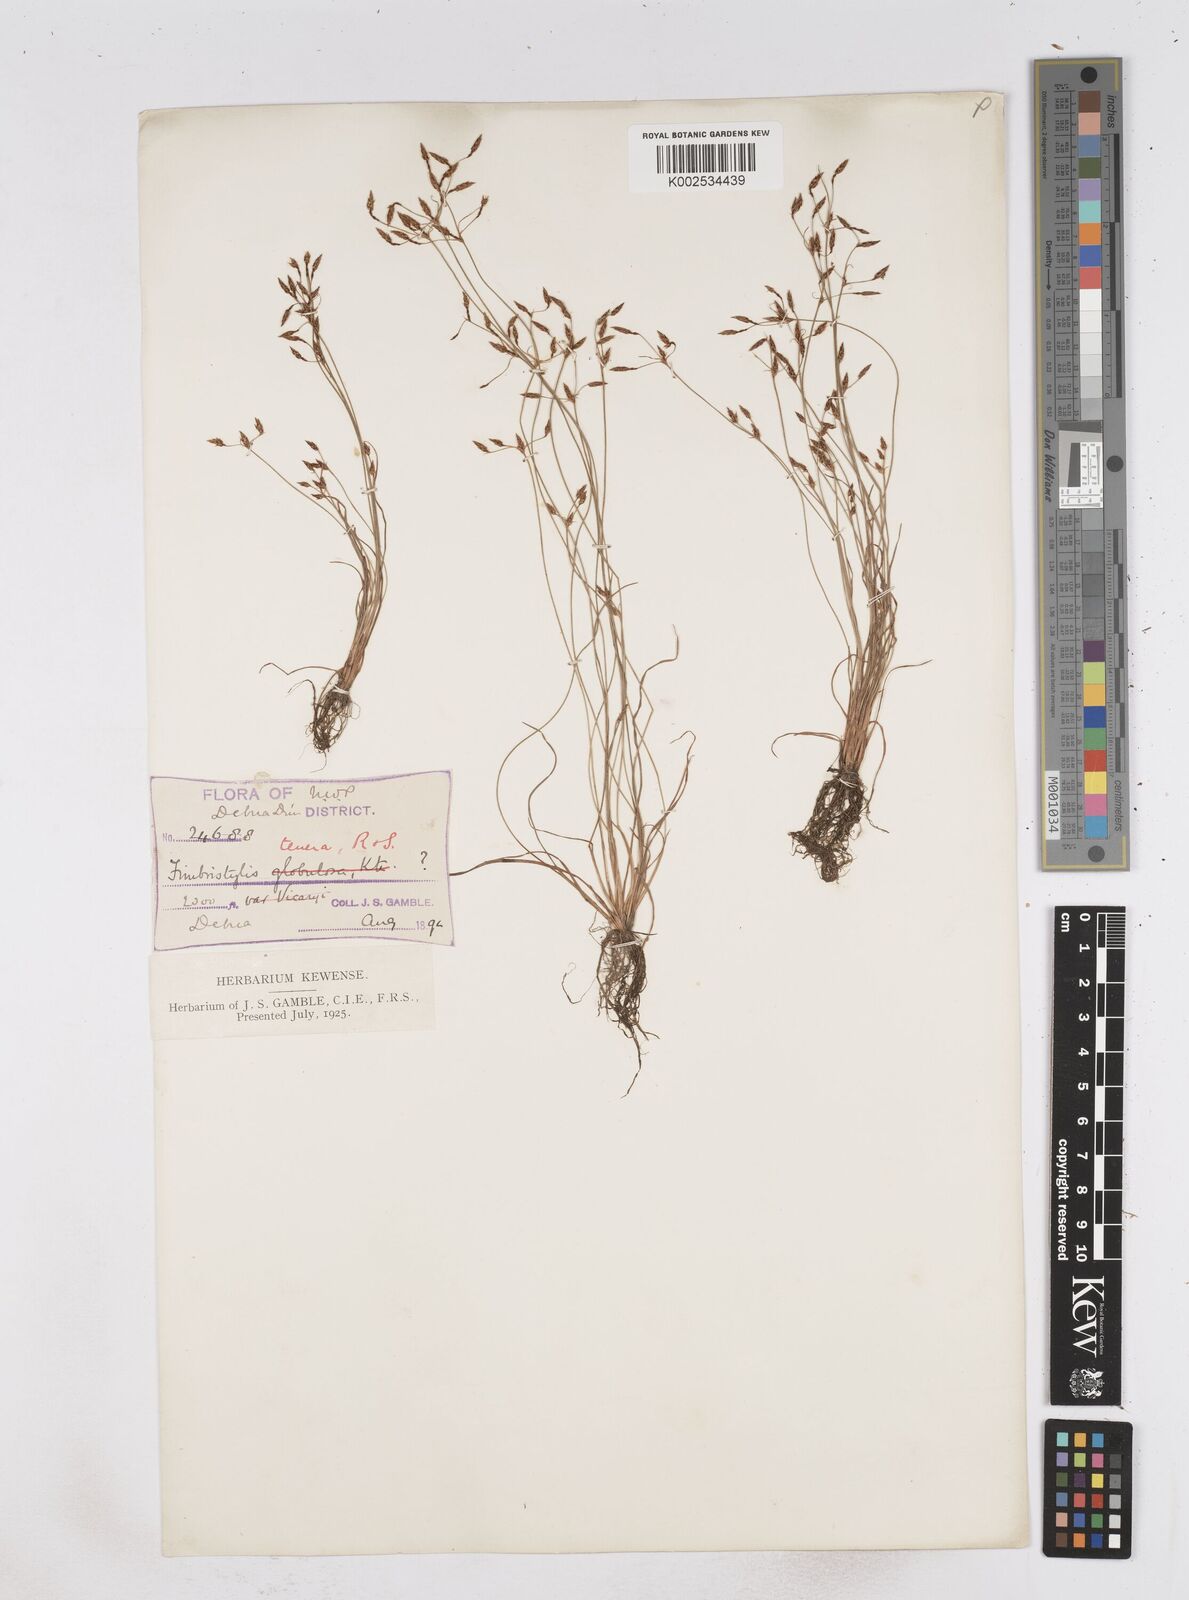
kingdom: Plantae
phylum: Tracheophyta
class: Liliopsida
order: Poales
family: Cyperaceae
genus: Fimbristylis
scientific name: Fimbristylis tenera
